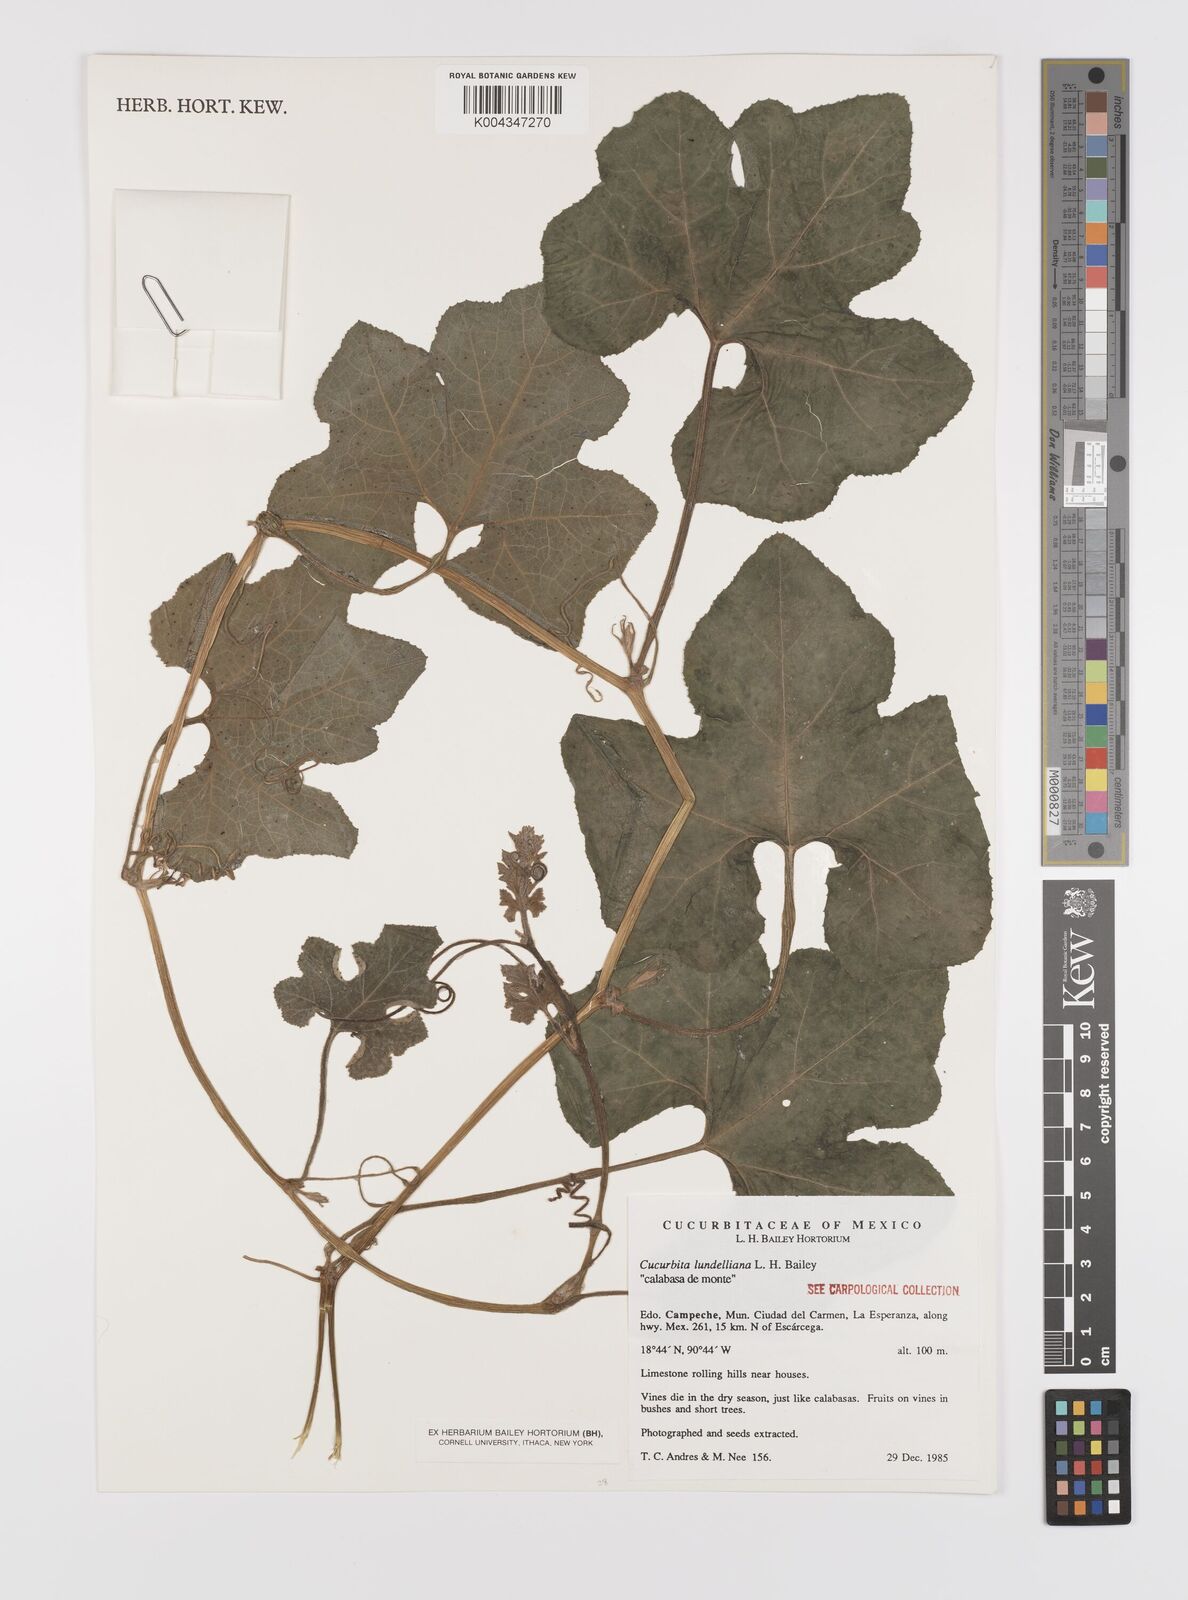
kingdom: Plantae
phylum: Tracheophyta
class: Magnoliopsida
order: Cucurbitales
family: Cucurbitaceae
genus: Cucurbita
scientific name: Cucurbita lundelliana
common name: Bitter pumpkin
